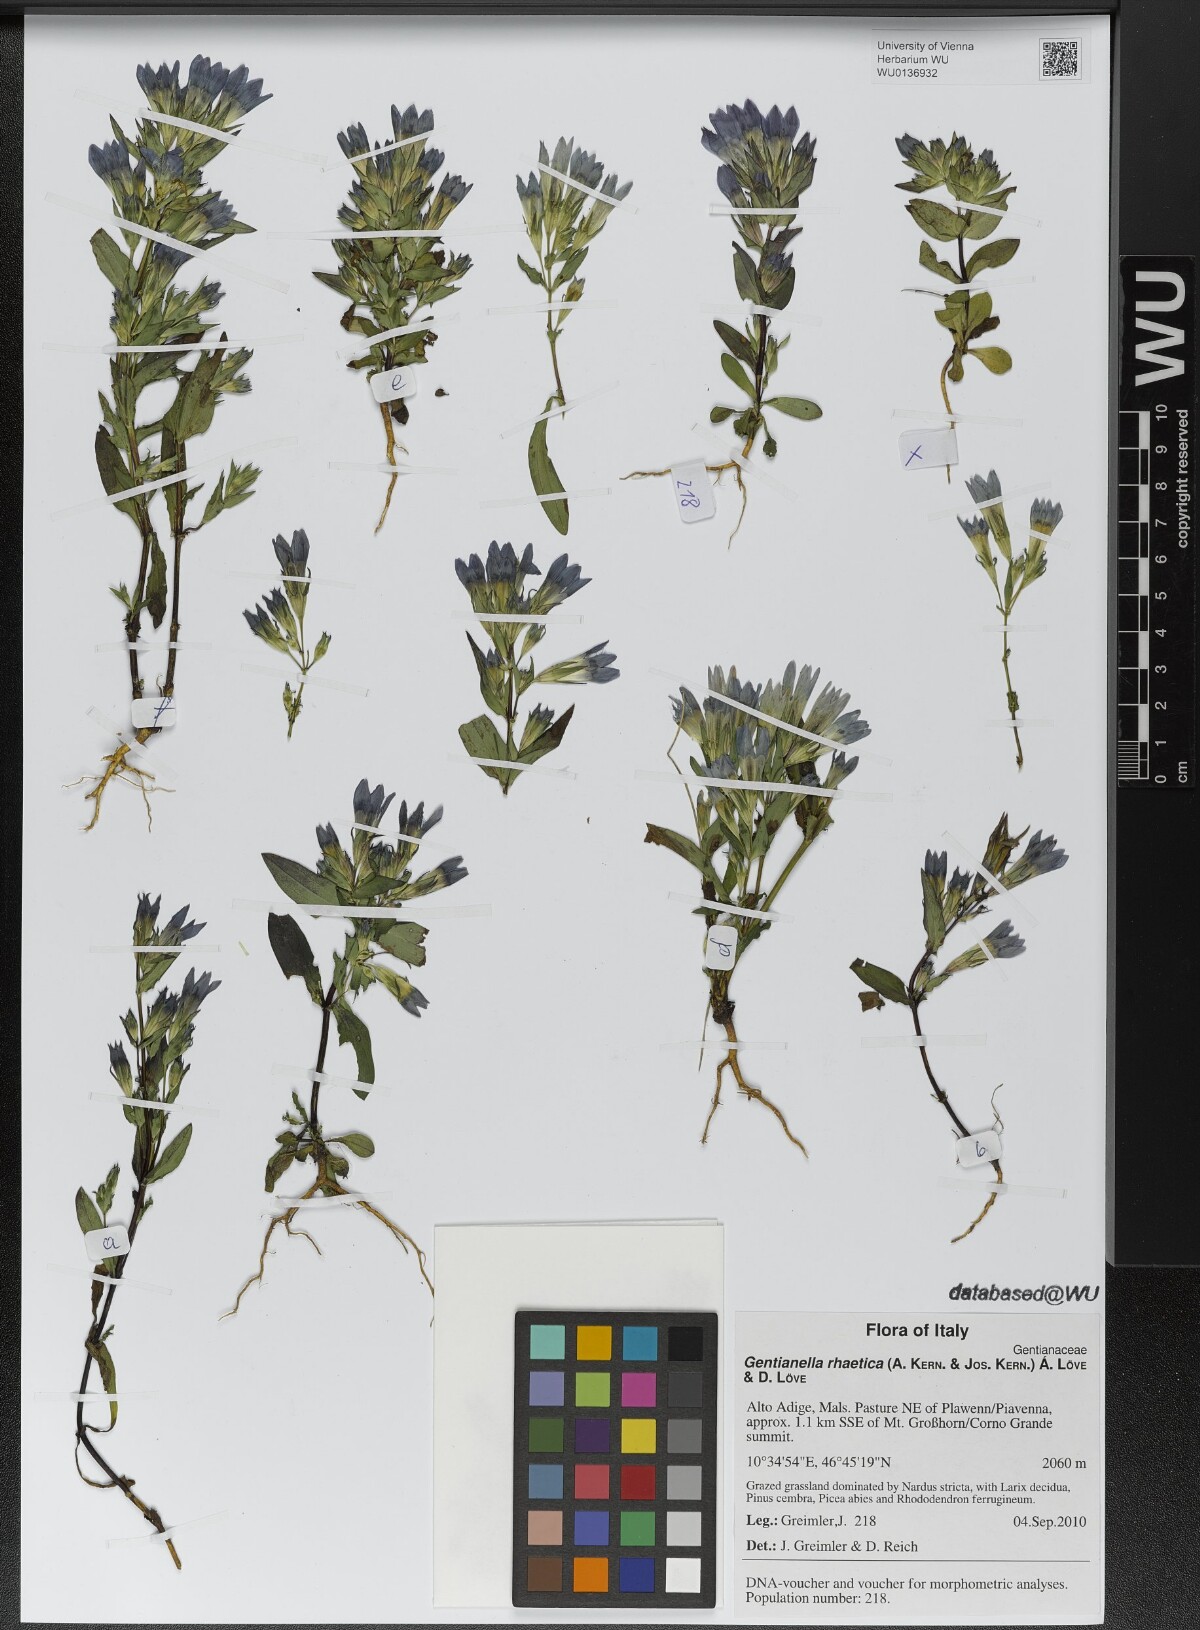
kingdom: Plantae
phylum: Tracheophyta
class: Magnoliopsida
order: Gentianales
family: Gentianaceae
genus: Gentianella
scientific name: Gentianella rhaetica
